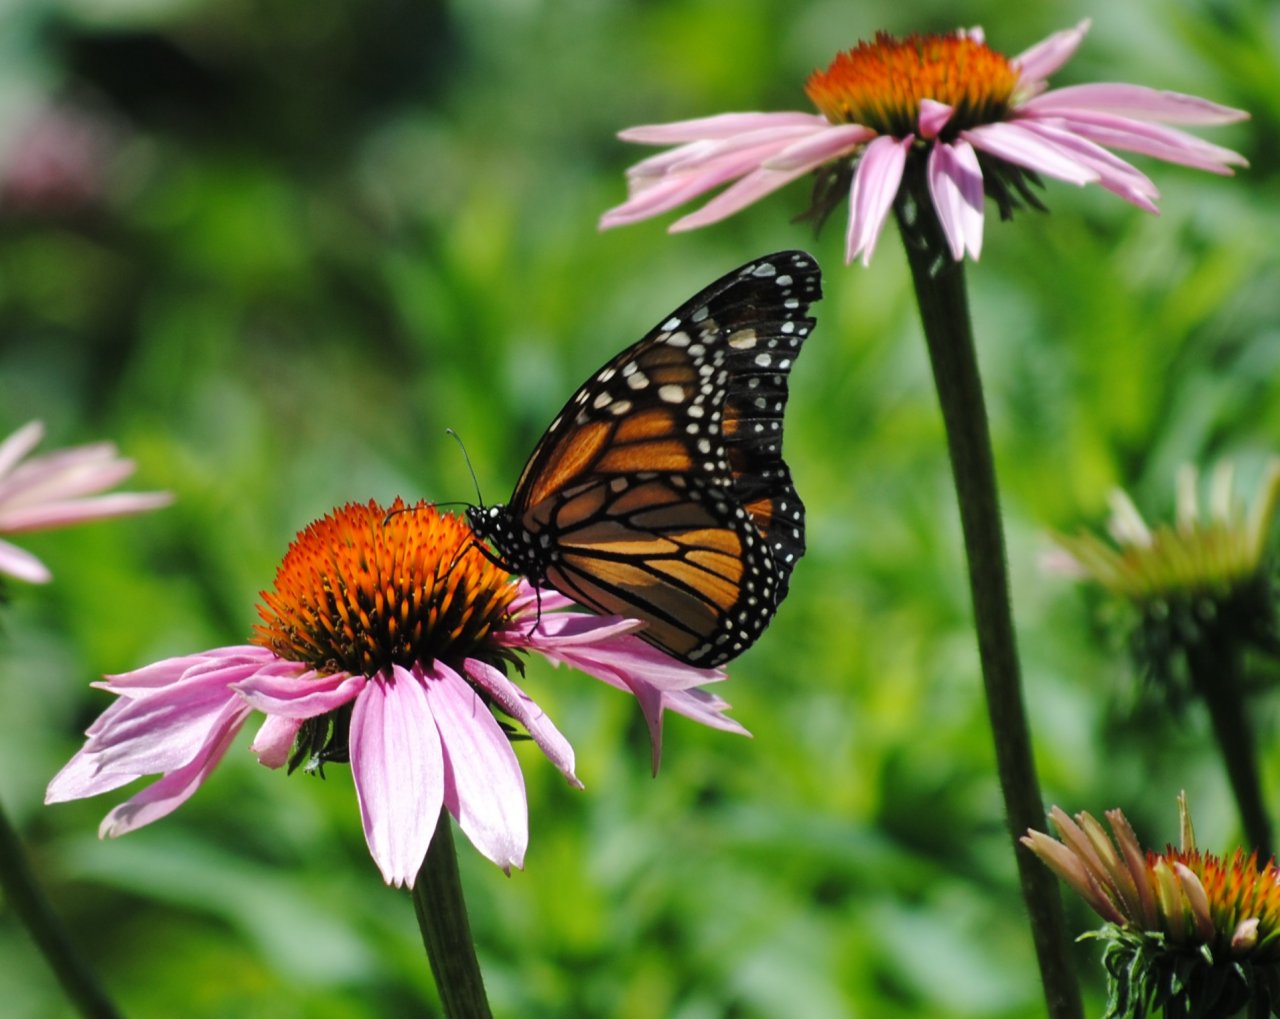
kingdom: Animalia
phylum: Arthropoda
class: Insecta
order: Lepidoptera
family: Nymphalidae
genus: Danaus
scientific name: Danaus plexippus
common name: Monarch
